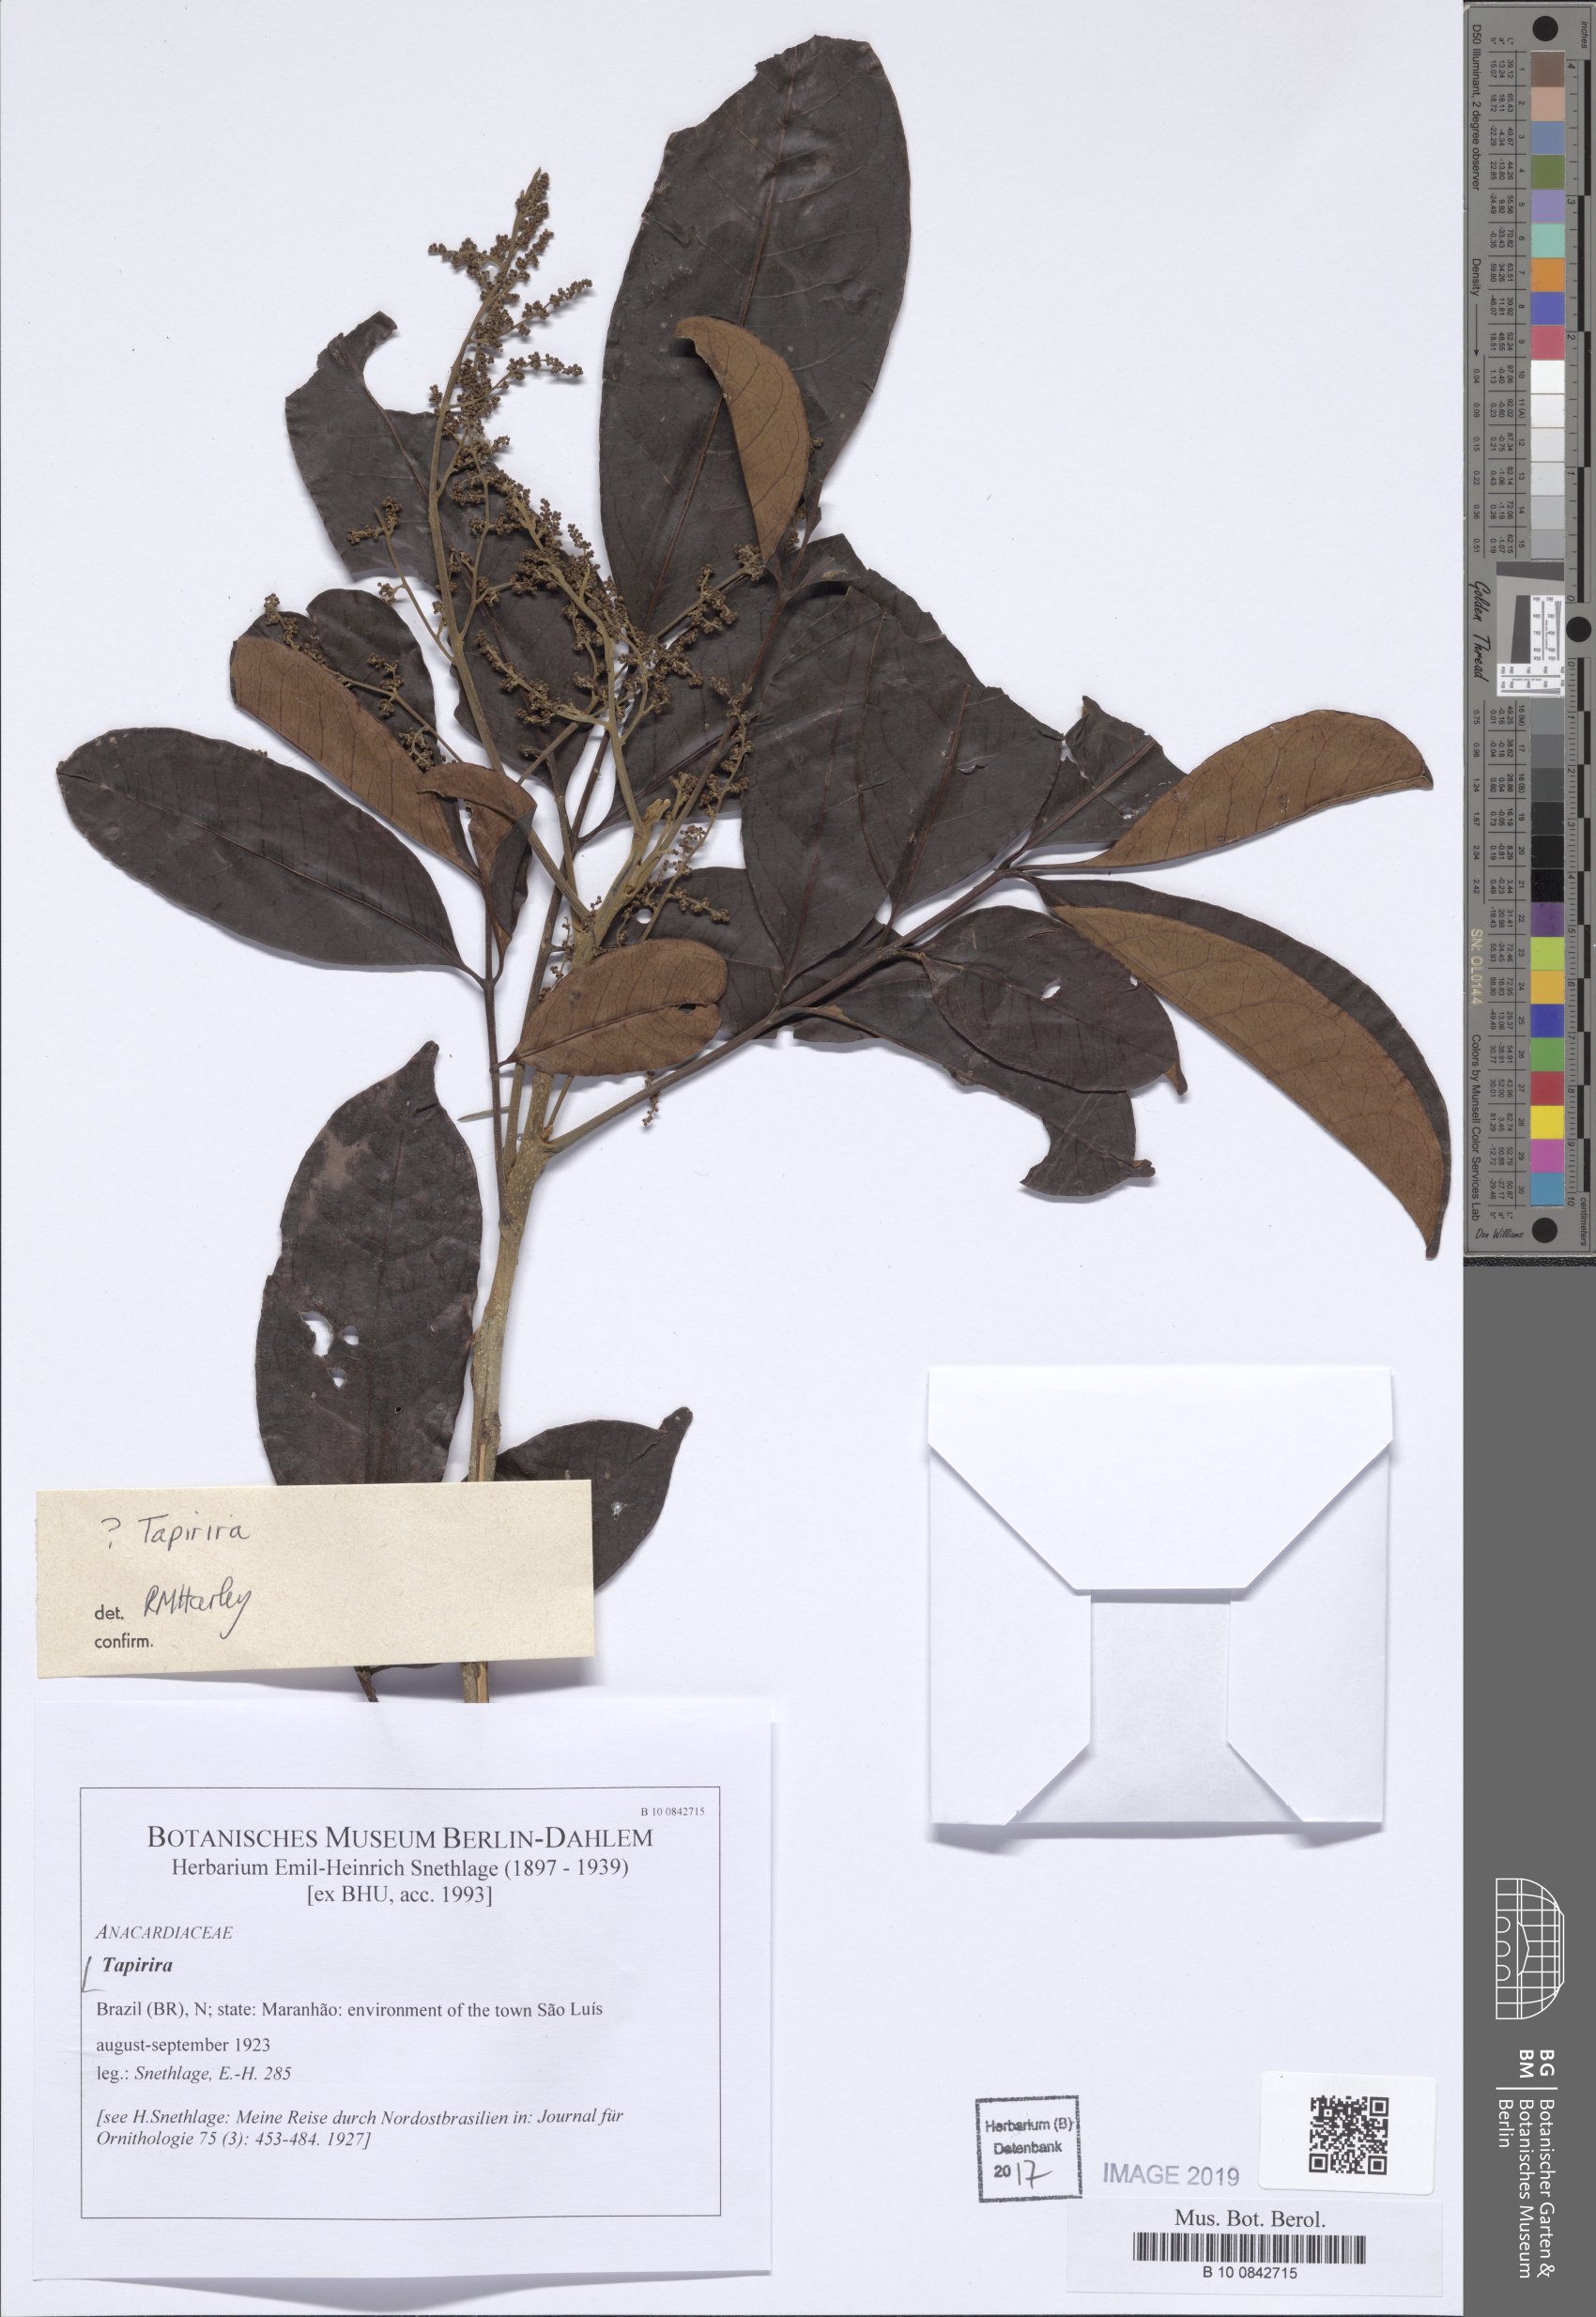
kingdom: Plantae
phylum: Tracheophyta
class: Magnoliopsida
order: Sapindales
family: Anacardiaceae
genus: Tapirira
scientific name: Tapirira
